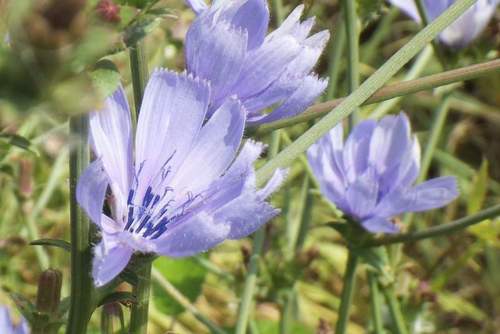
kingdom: Plantae
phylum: Tracheophyta
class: Magnoliopsida
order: Asterales
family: Asteraceae
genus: Cichorium
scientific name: Cichorium intybus
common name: Chicory
